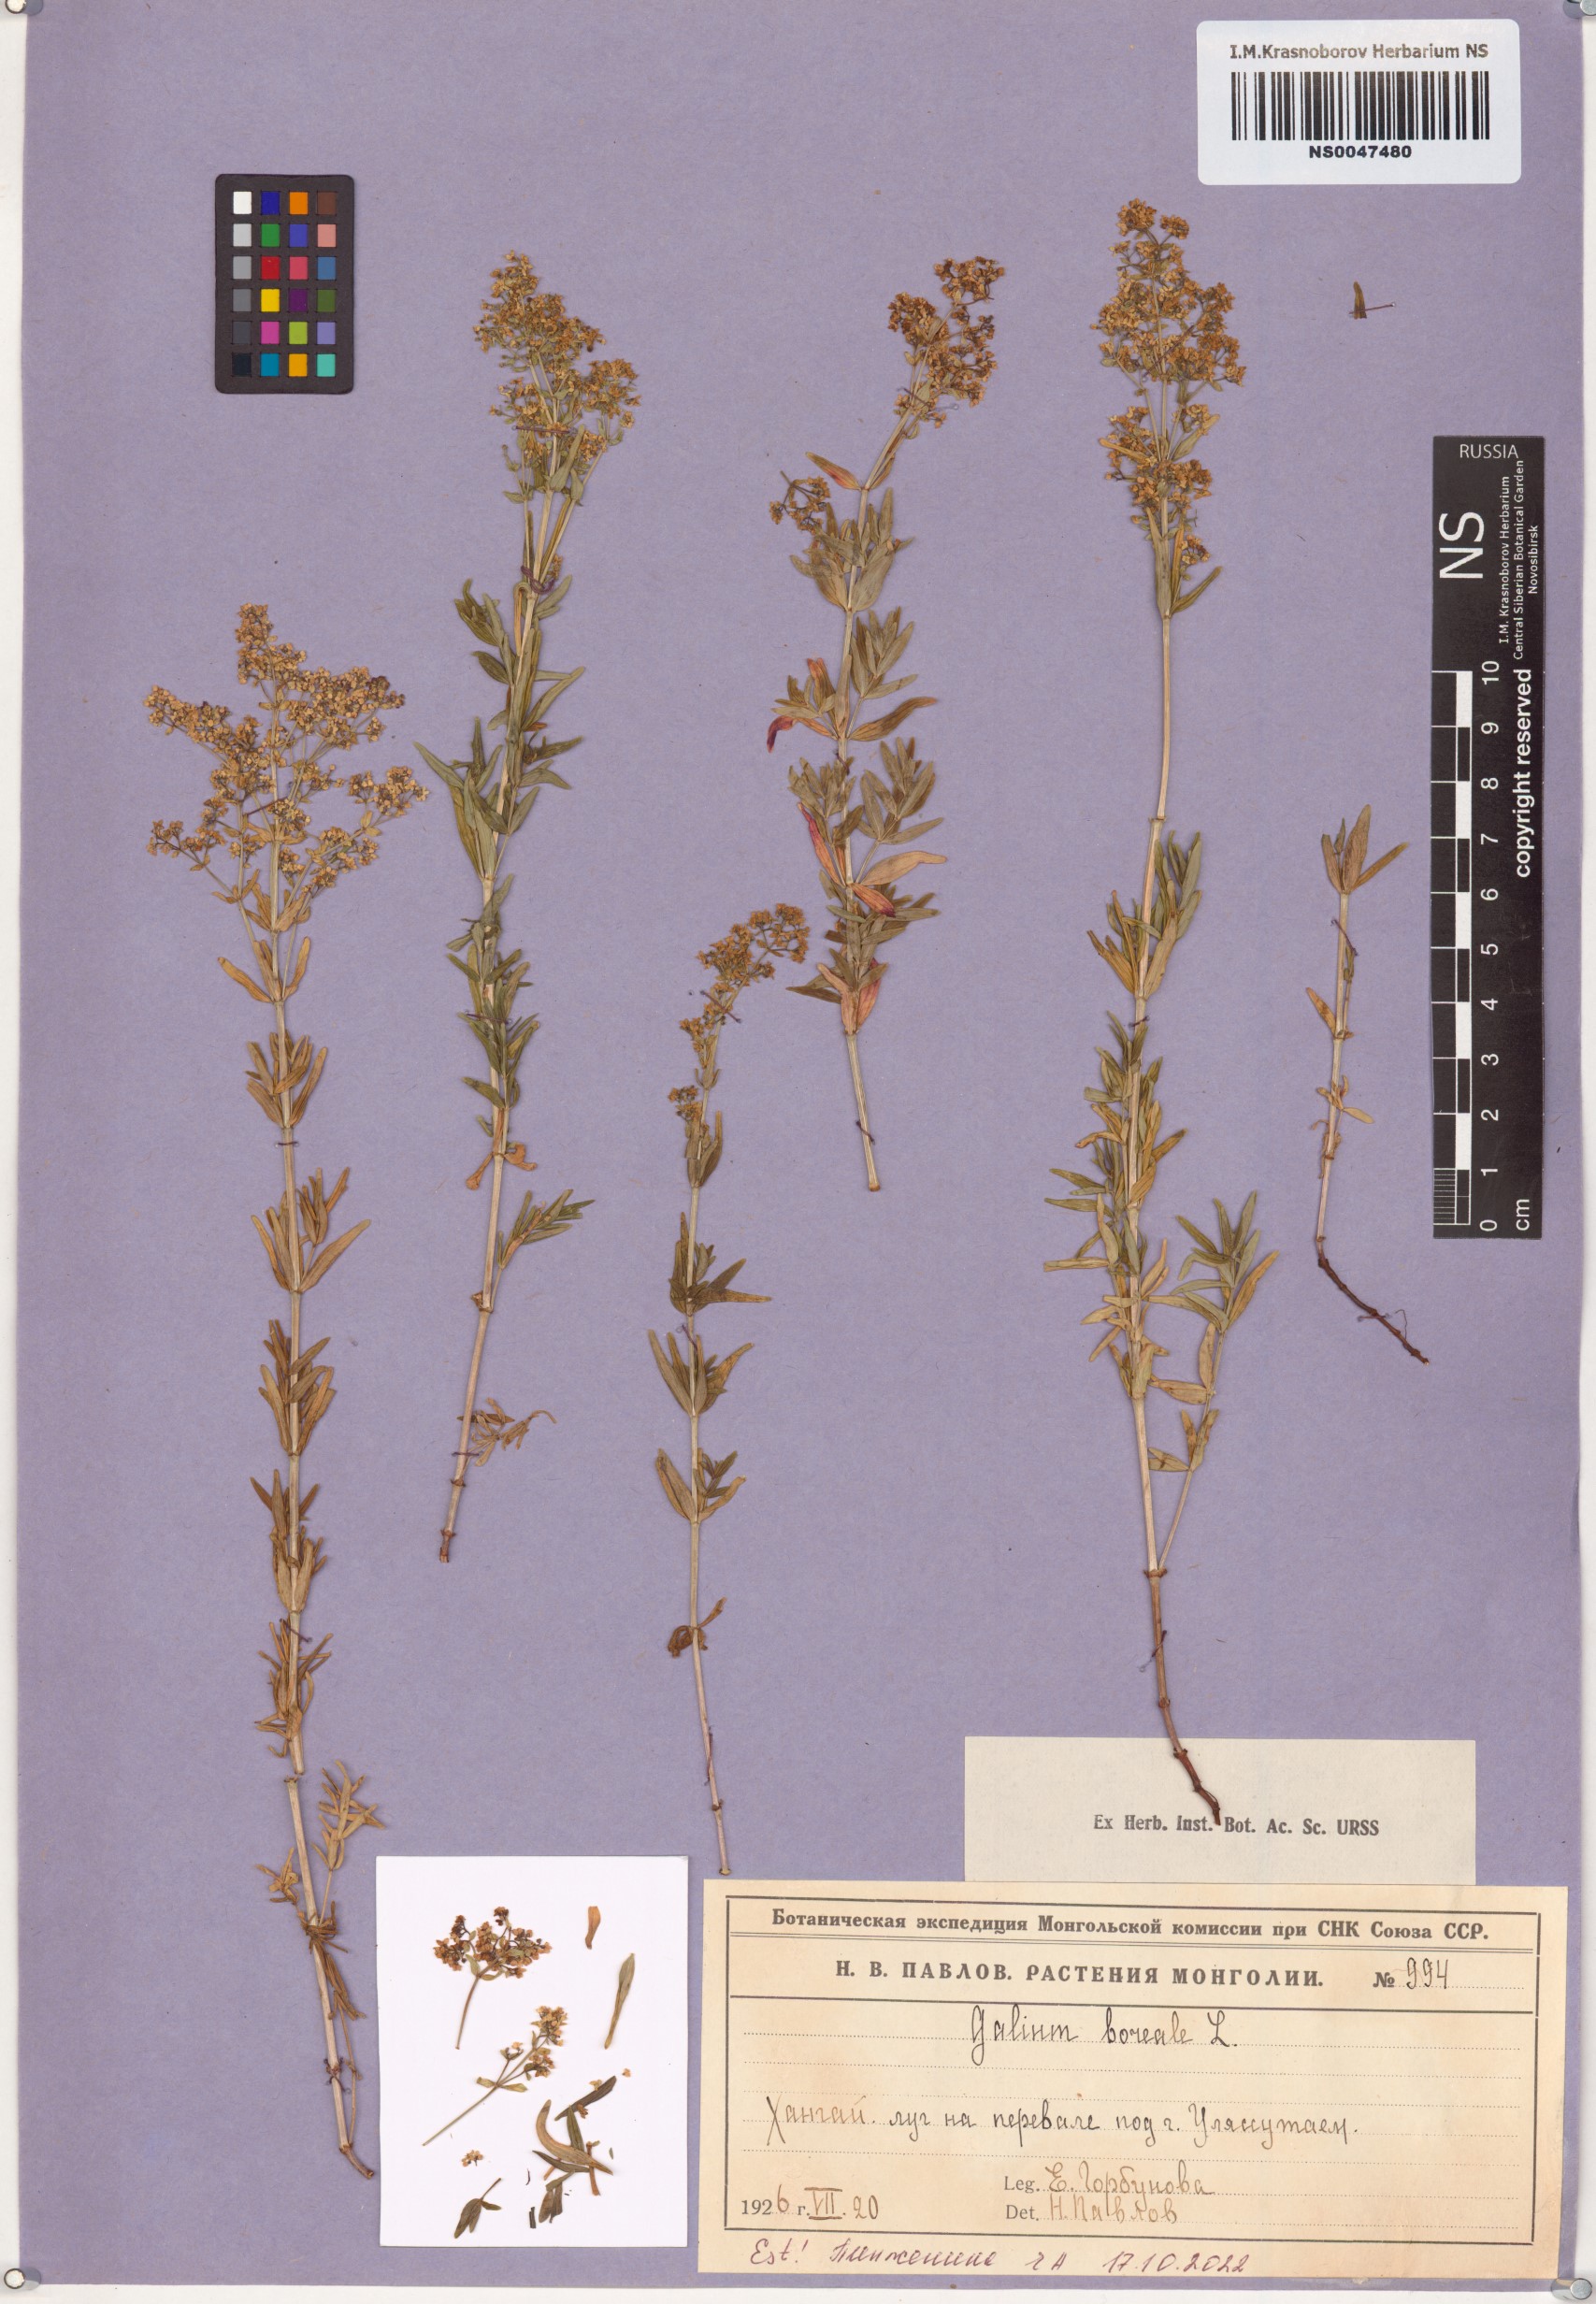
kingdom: Plantae
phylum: Tracheophyta
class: Magnoliopsida
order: Gentianales
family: Rubiaceae
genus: Galium
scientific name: Galium boreale
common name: Northern bedstraw
